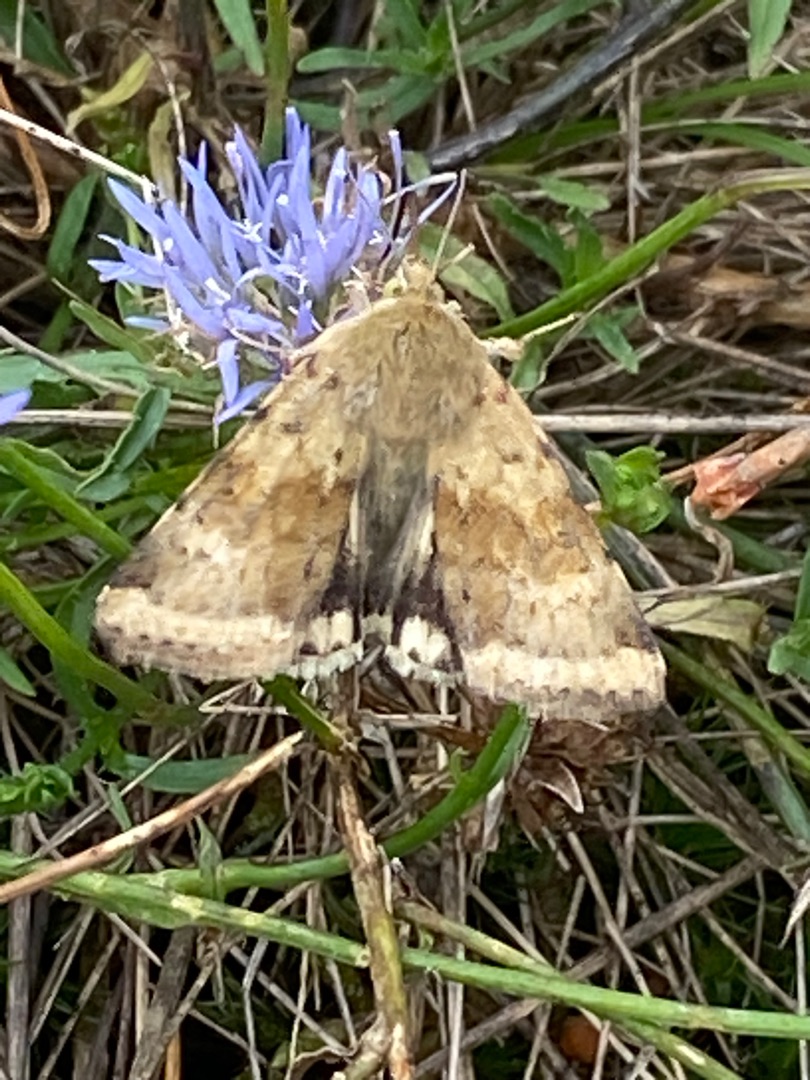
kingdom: Animalia
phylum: Arthropoda
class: Insecta
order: Lepidoptera
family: Noctuidae
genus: Heliothis
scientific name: Heliothis viriplaca
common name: Cikorieugle
